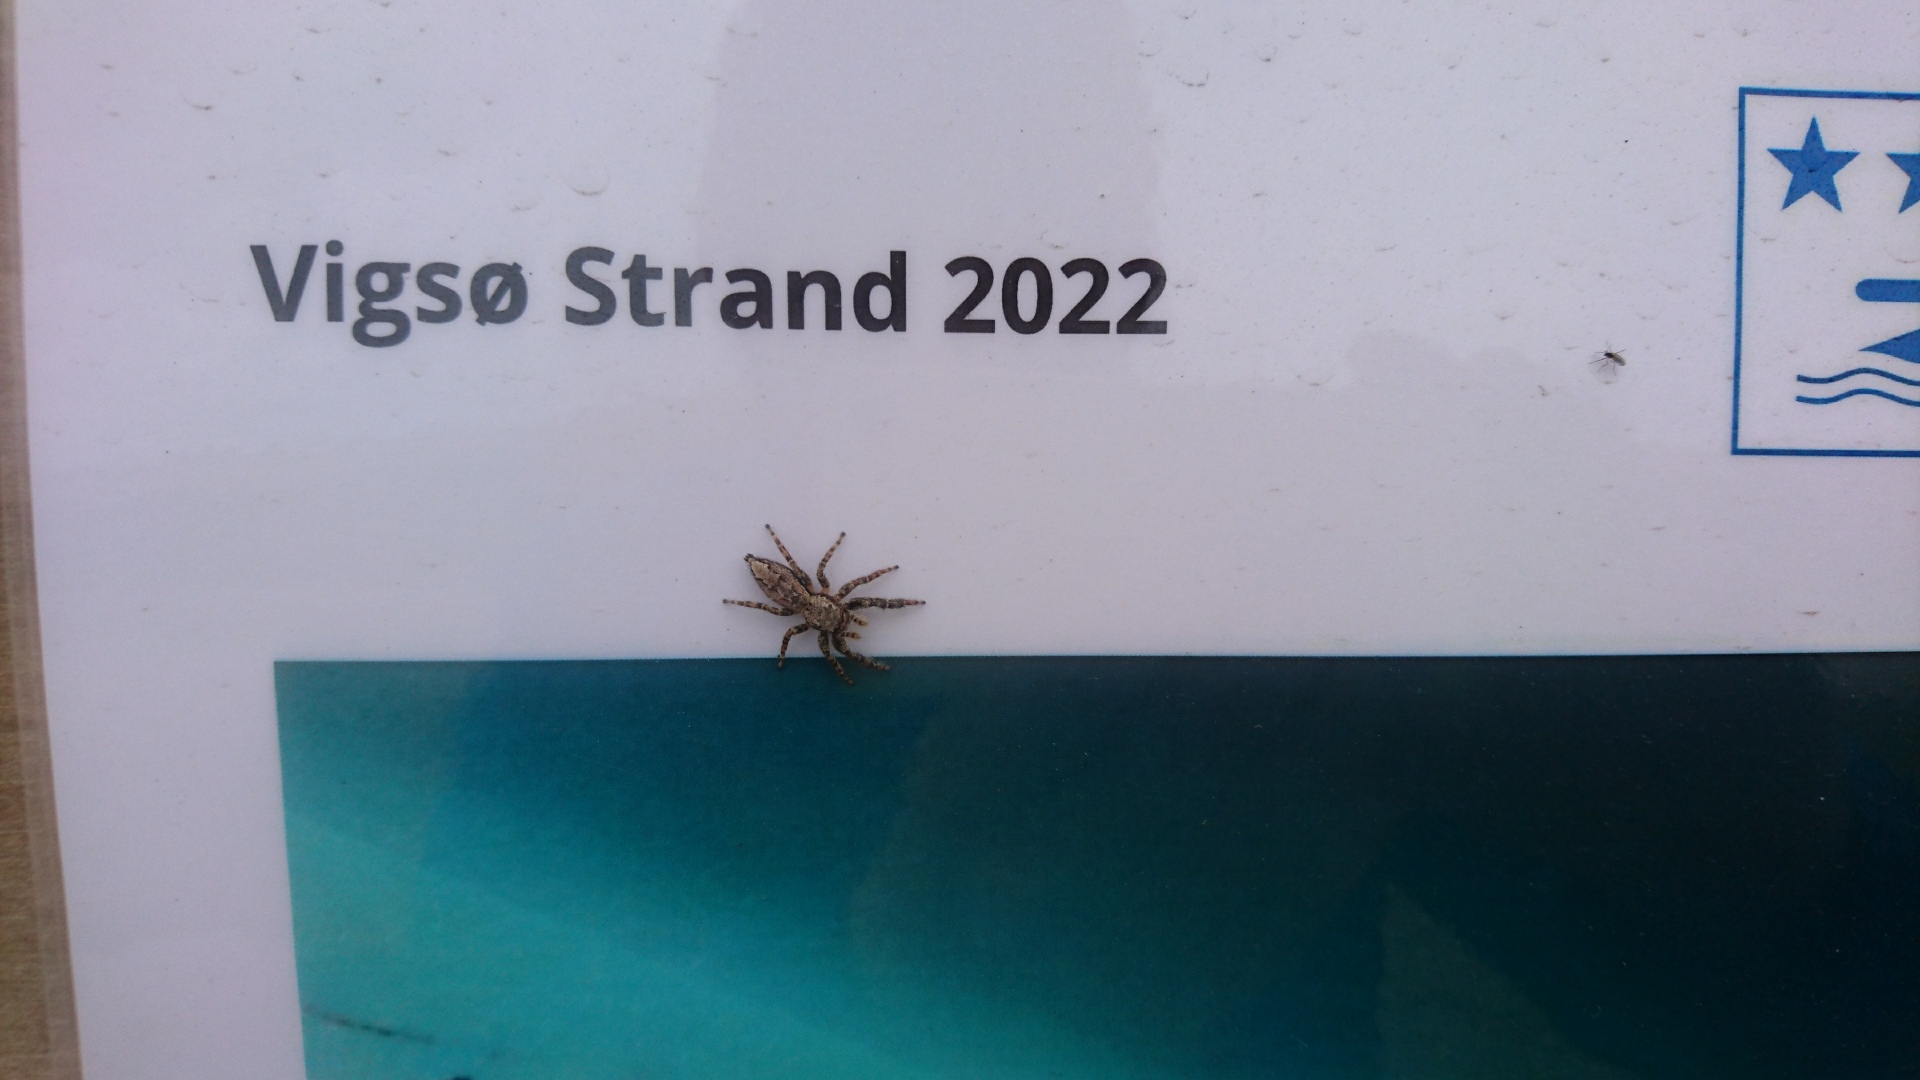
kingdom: Animalia
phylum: Arthropoda
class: Arachnida
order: Araneae
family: Salticidae
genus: Marpissa
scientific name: Marpissa muscosa
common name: Stor springedderkop
